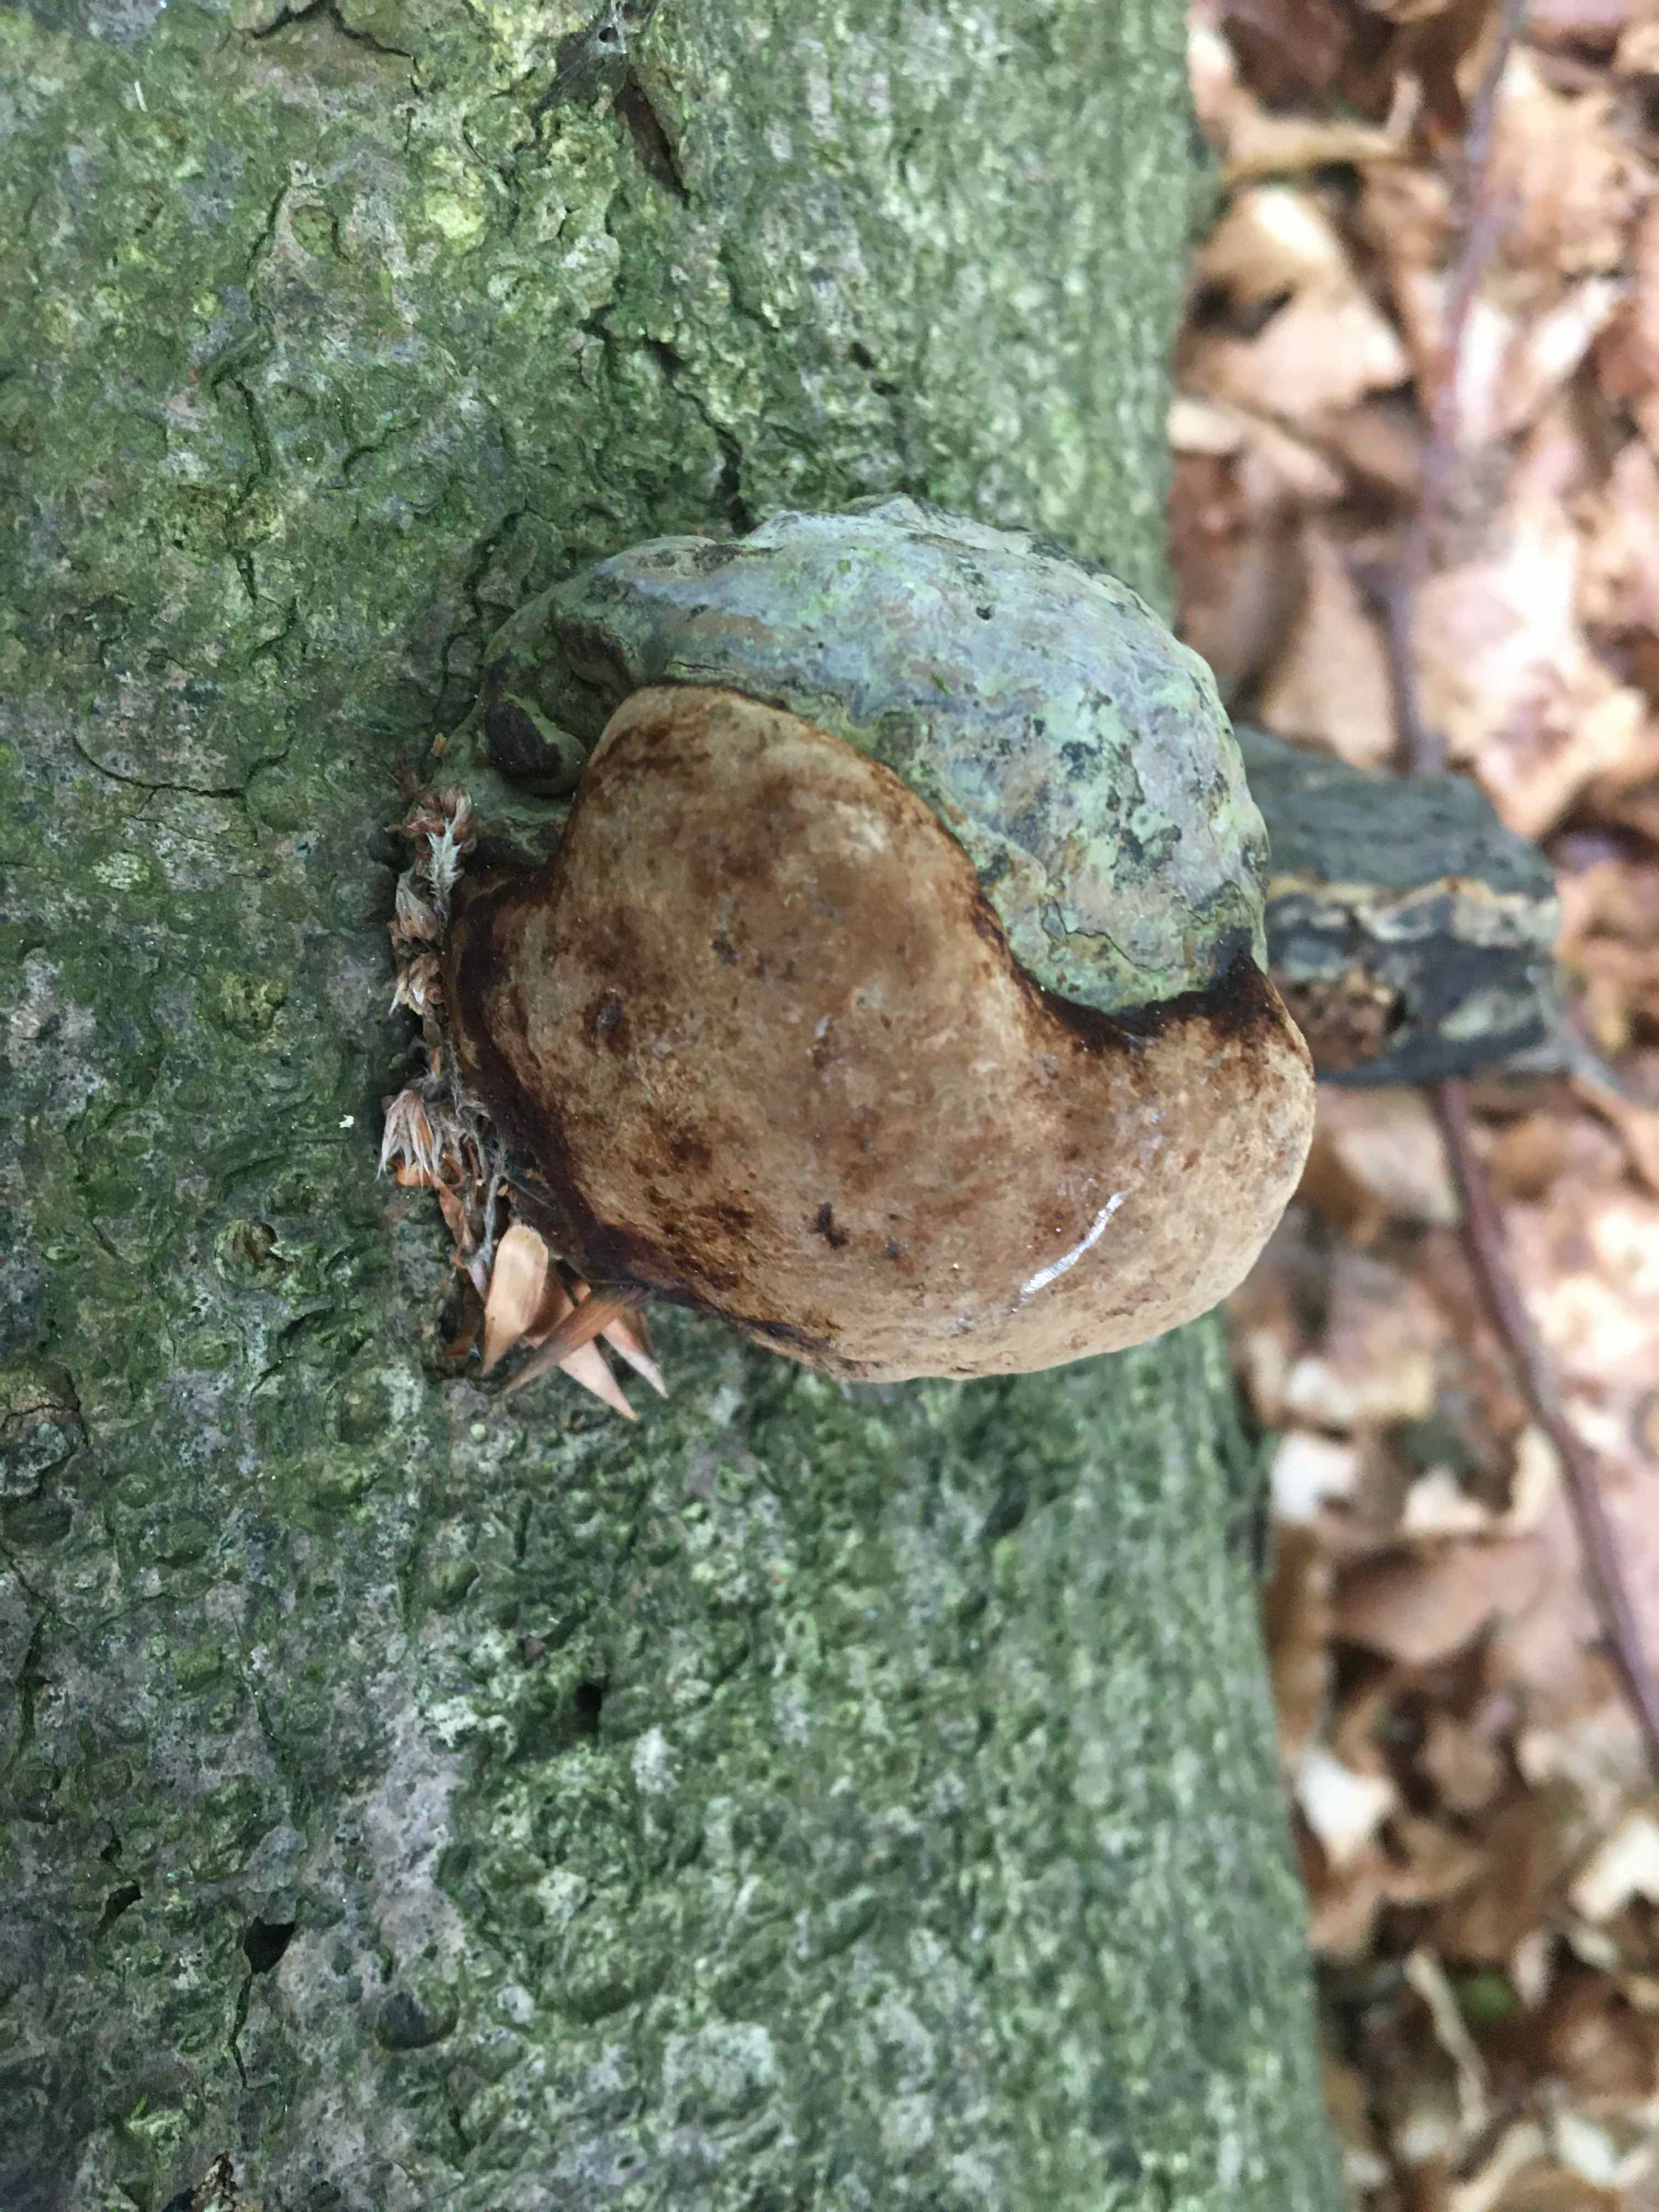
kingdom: Fungi
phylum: Basidiomycota
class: Agaricomycetes
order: Polyporales
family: Polyporaceae
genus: Fomes
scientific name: Fomes fomentarius
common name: tøndersvamp
